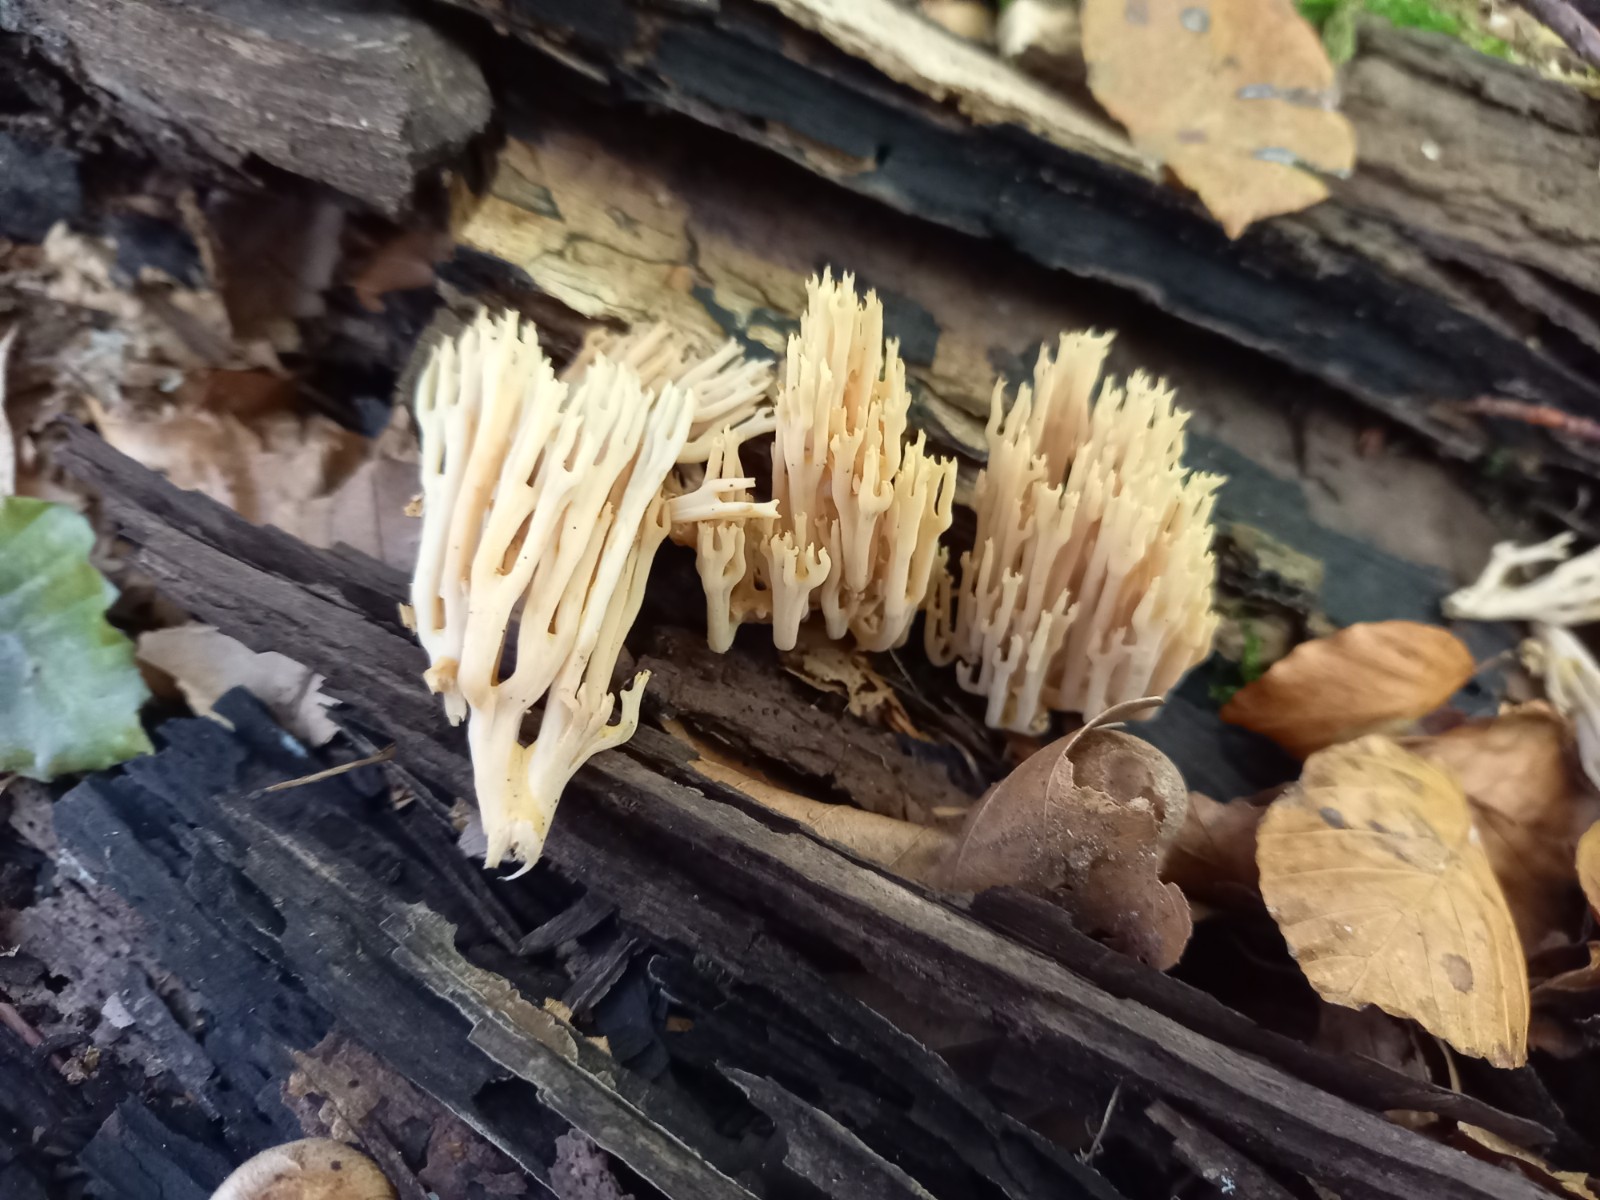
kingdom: Fungi
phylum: Basidiomycota
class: Agaricomycetes
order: Gomphales
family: Gomphaceae
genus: Ramaria
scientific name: Ramaria stricta
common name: rank koralsvamp
